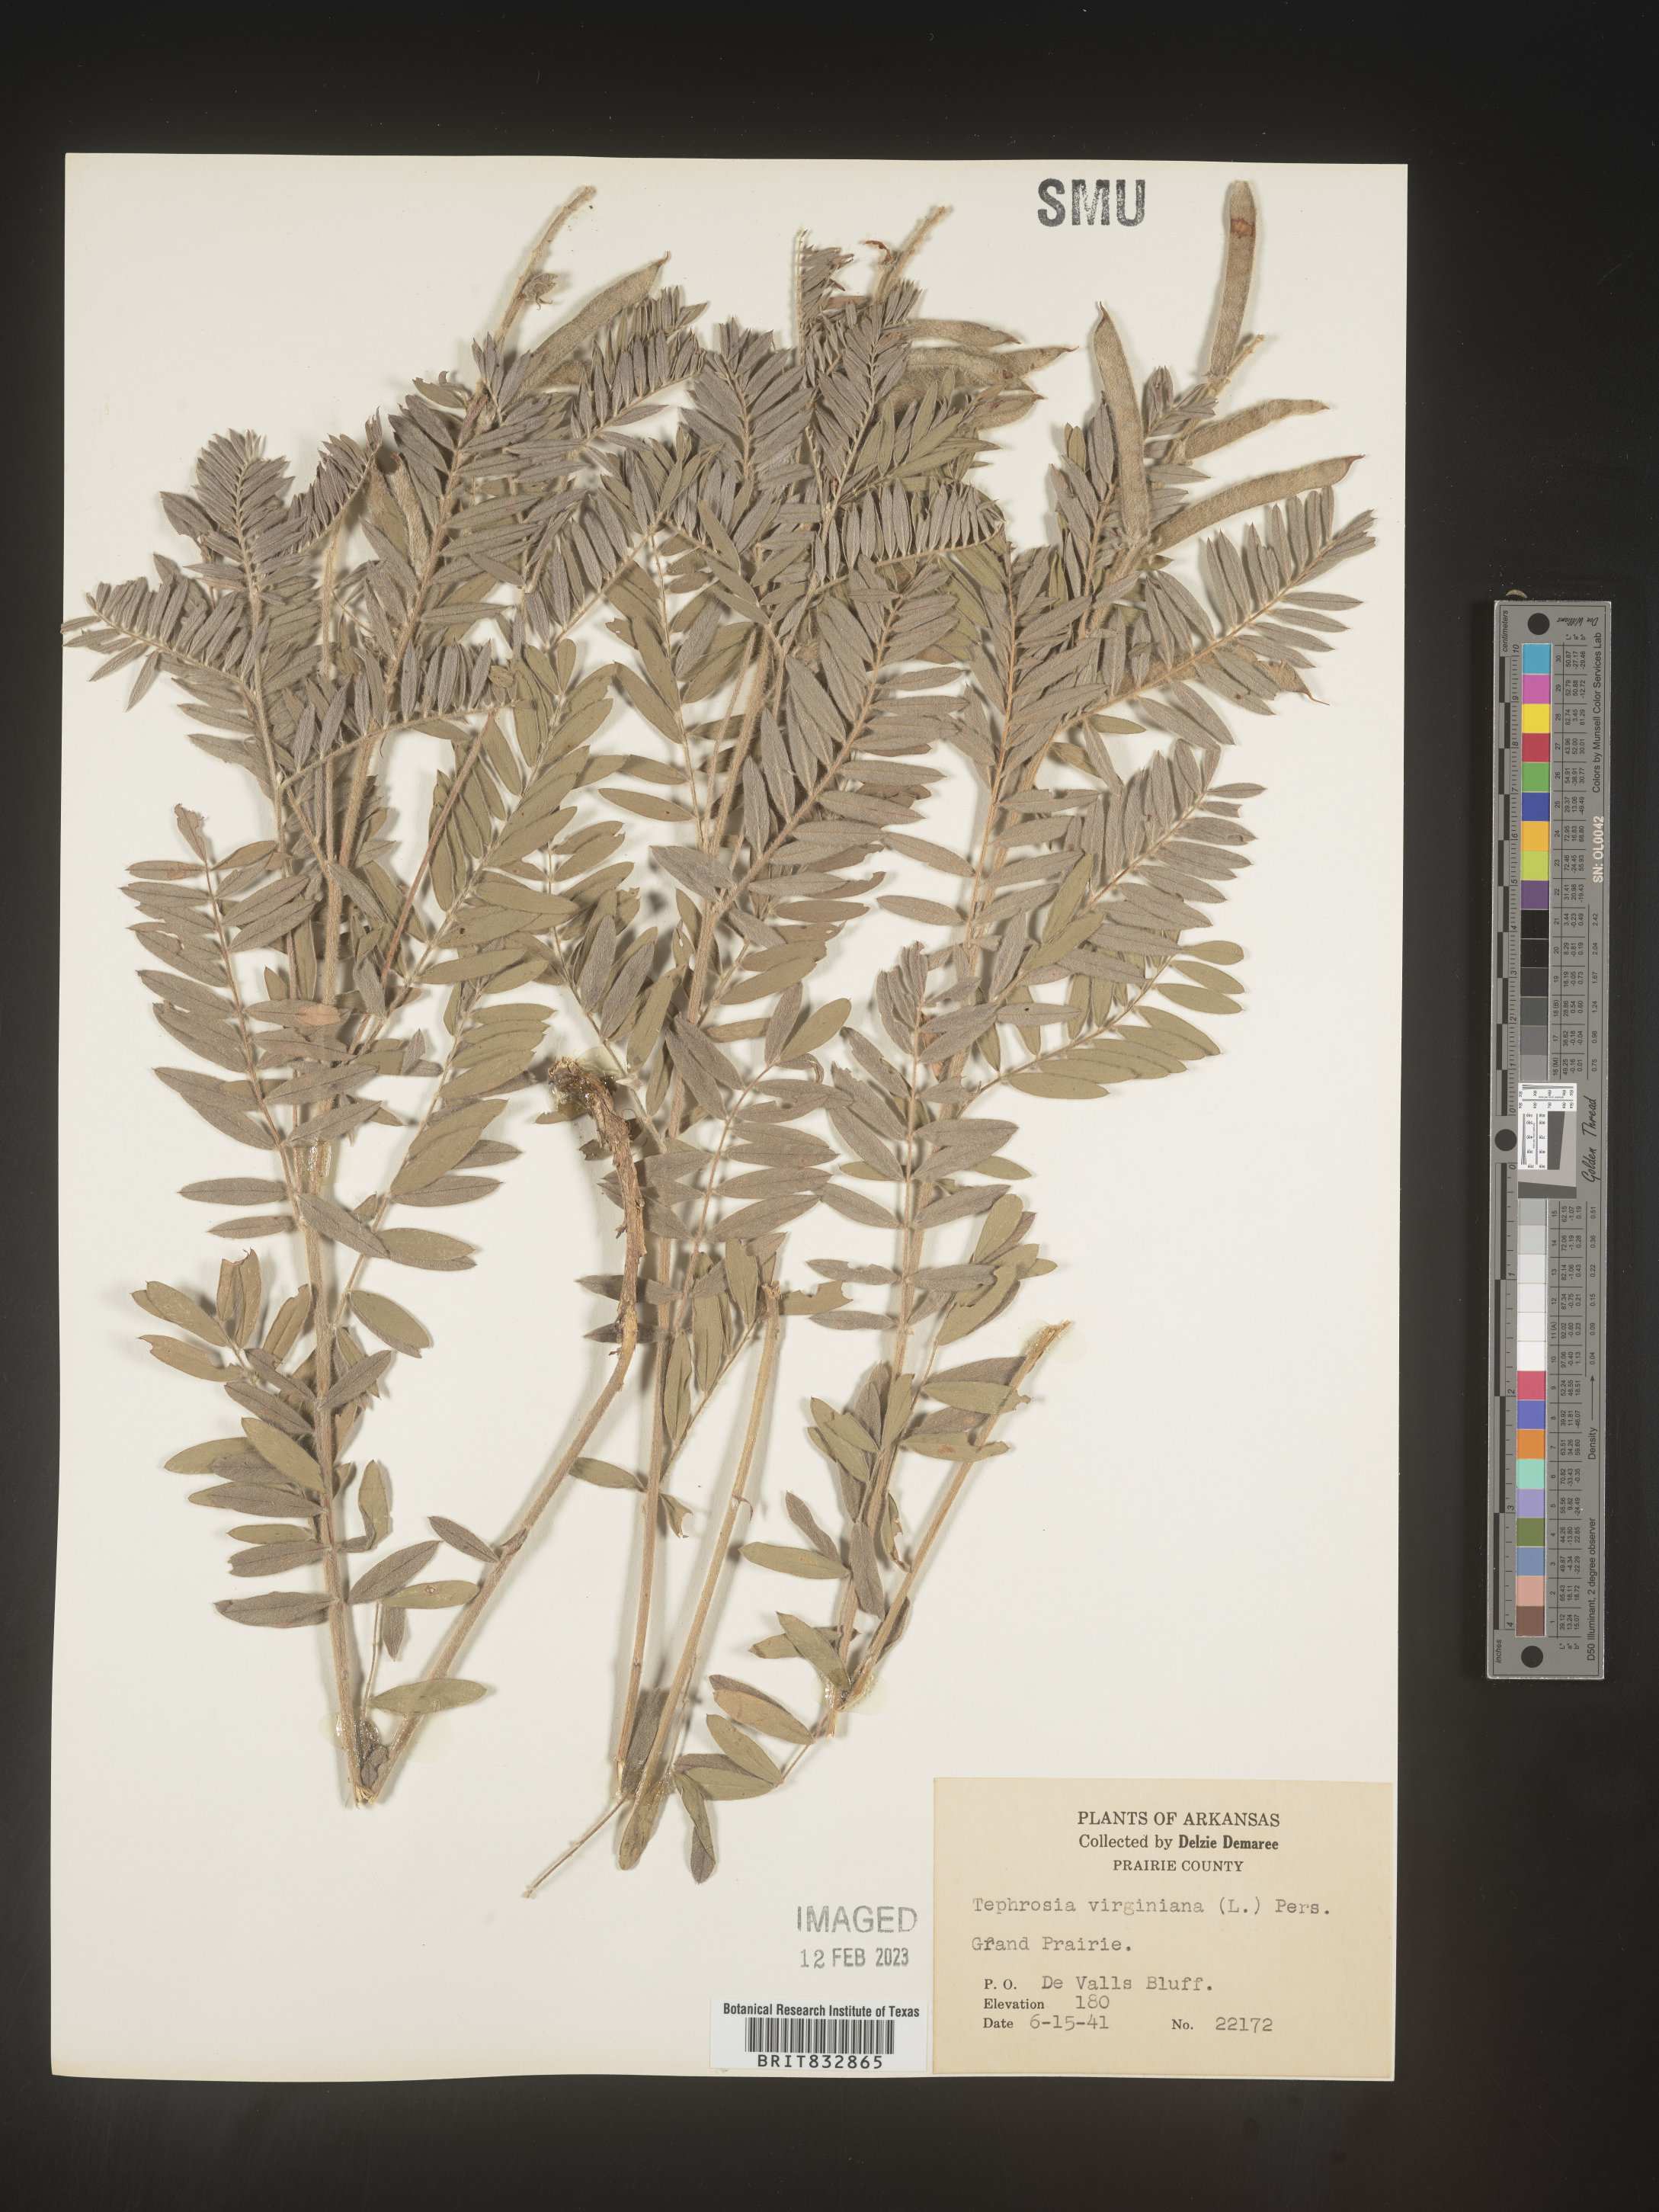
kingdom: Plantae
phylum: Tracheophyta
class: Magnoliopsida
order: Fabales
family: Fabaceae
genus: Tephrosia
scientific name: Tephrosia virginiana
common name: Rabbit-pea
